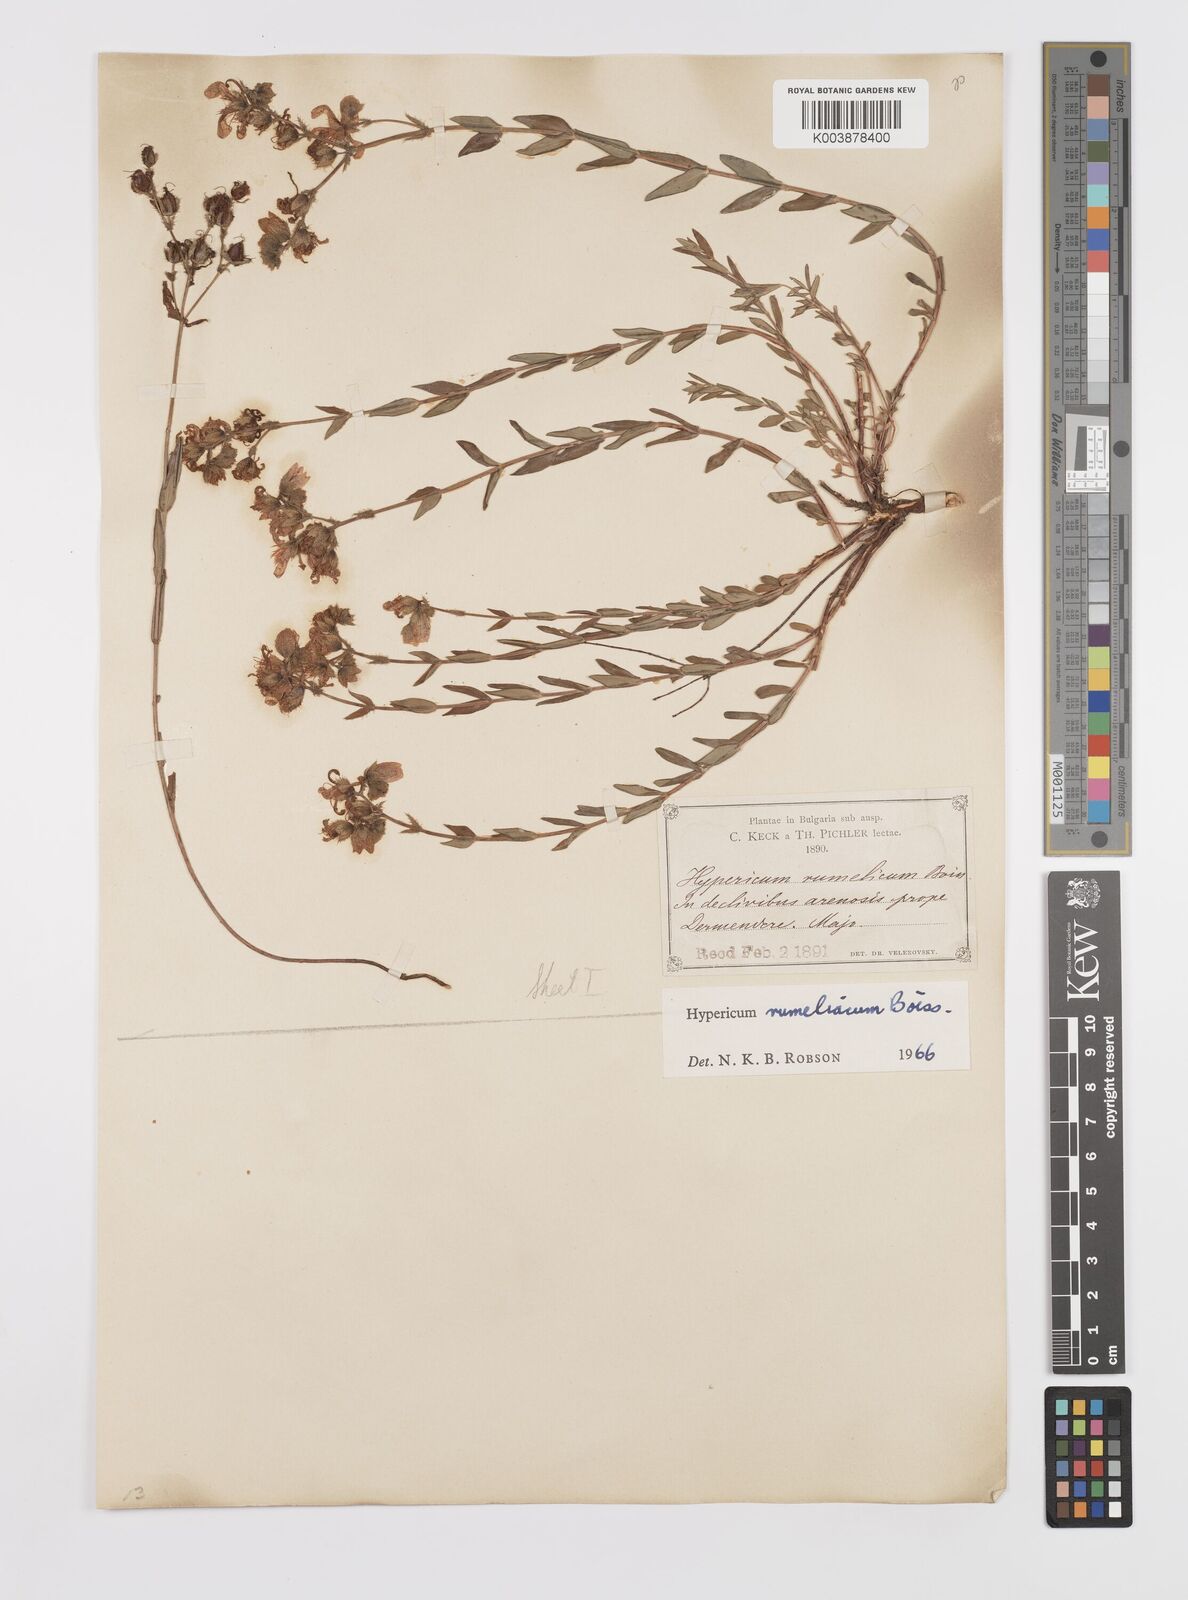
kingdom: Plantae
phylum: Tracheophyta
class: Magnoliopsida
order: Malpighiales
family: Hypericaceae
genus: Hypericum
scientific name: Hypericum rumeliacum
